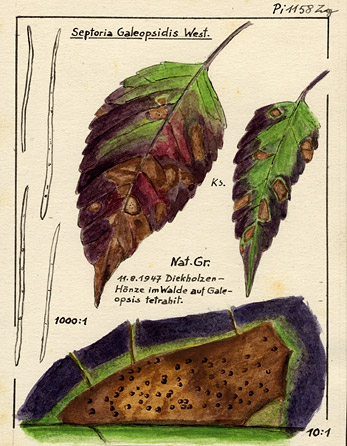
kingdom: Plantae
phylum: Tracheophyta
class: Magnoliopsida
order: Lamiales
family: Lamiaceae
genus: Galeopsis
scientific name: Galeopsis tetrahit
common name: Common hemp-nettle
